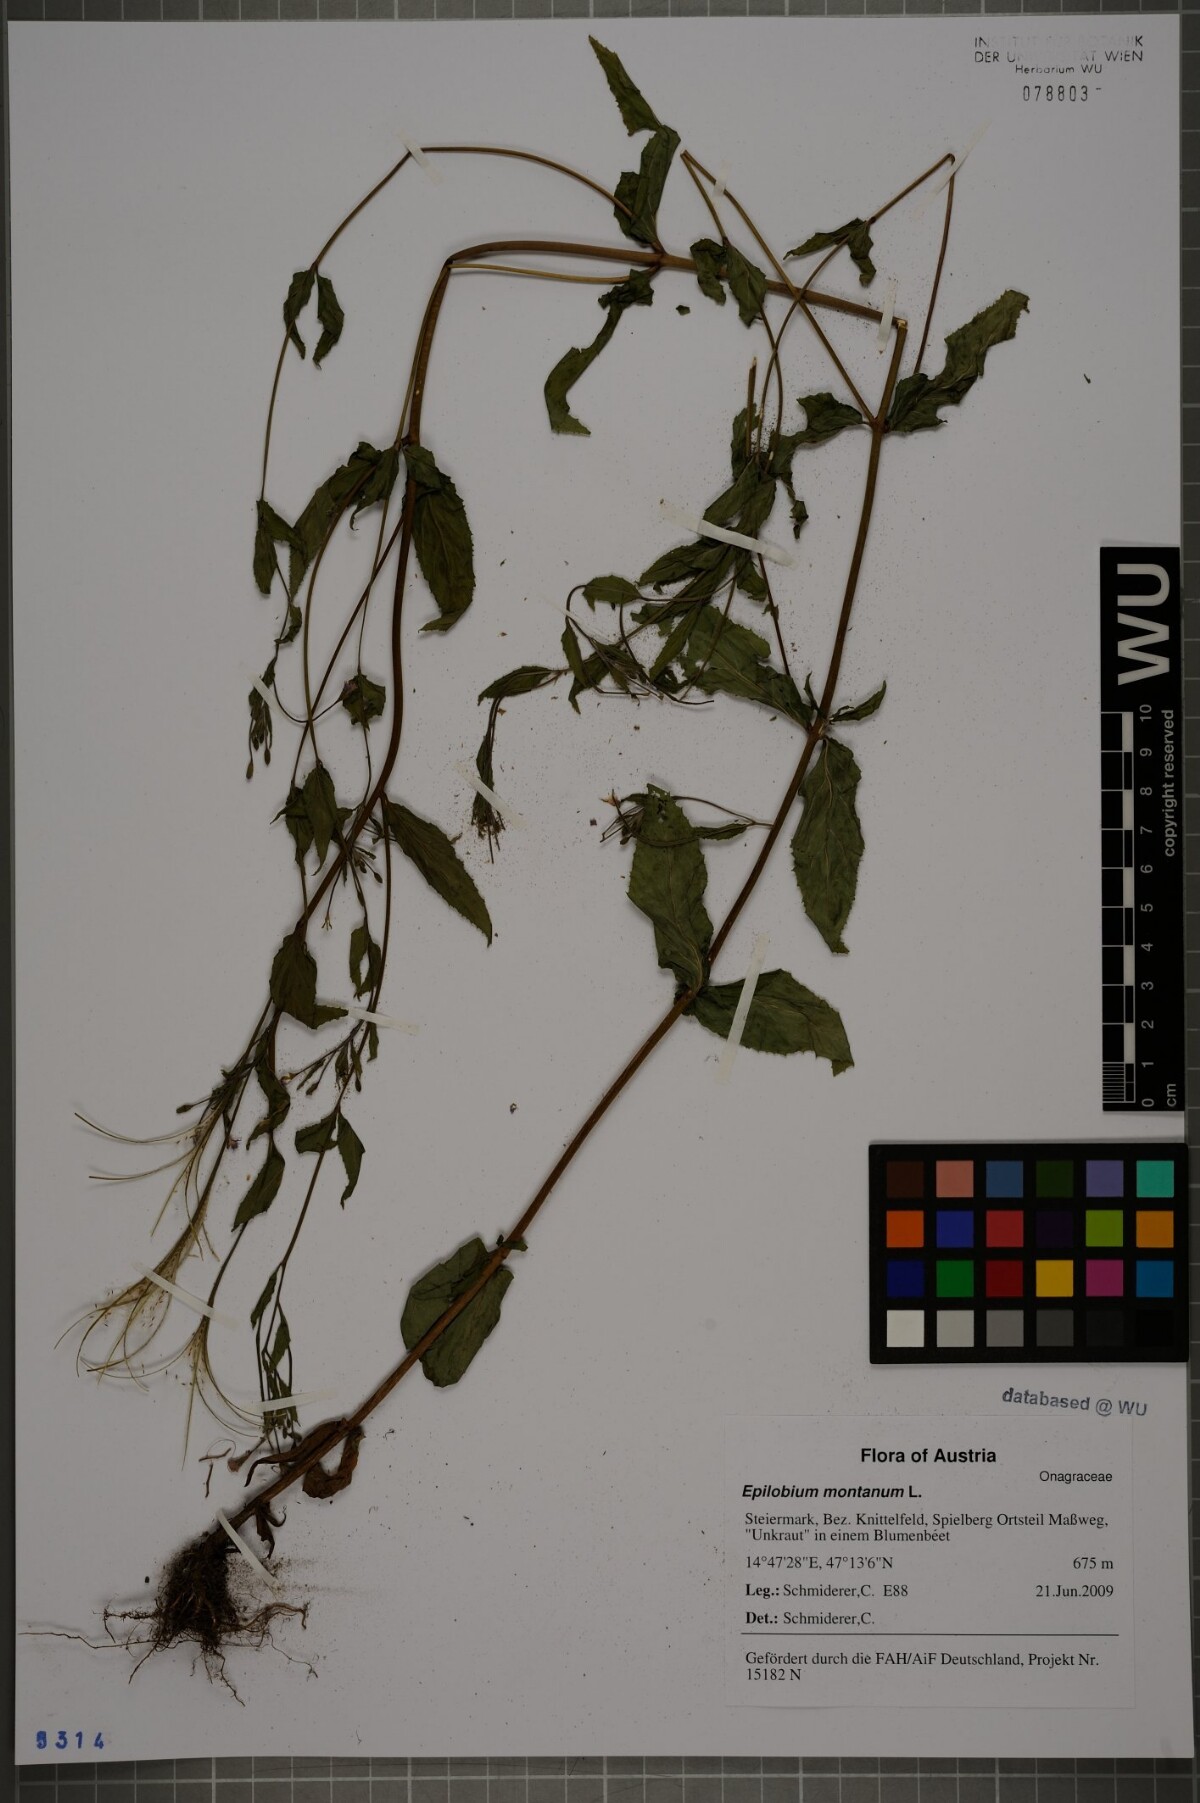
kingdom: Plantae
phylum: Tracheophyta
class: Magnoliopsida
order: Myrtales
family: Onagraceae
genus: Epilobium
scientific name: Epilobium montanum
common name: Broad-leaved willowherb
